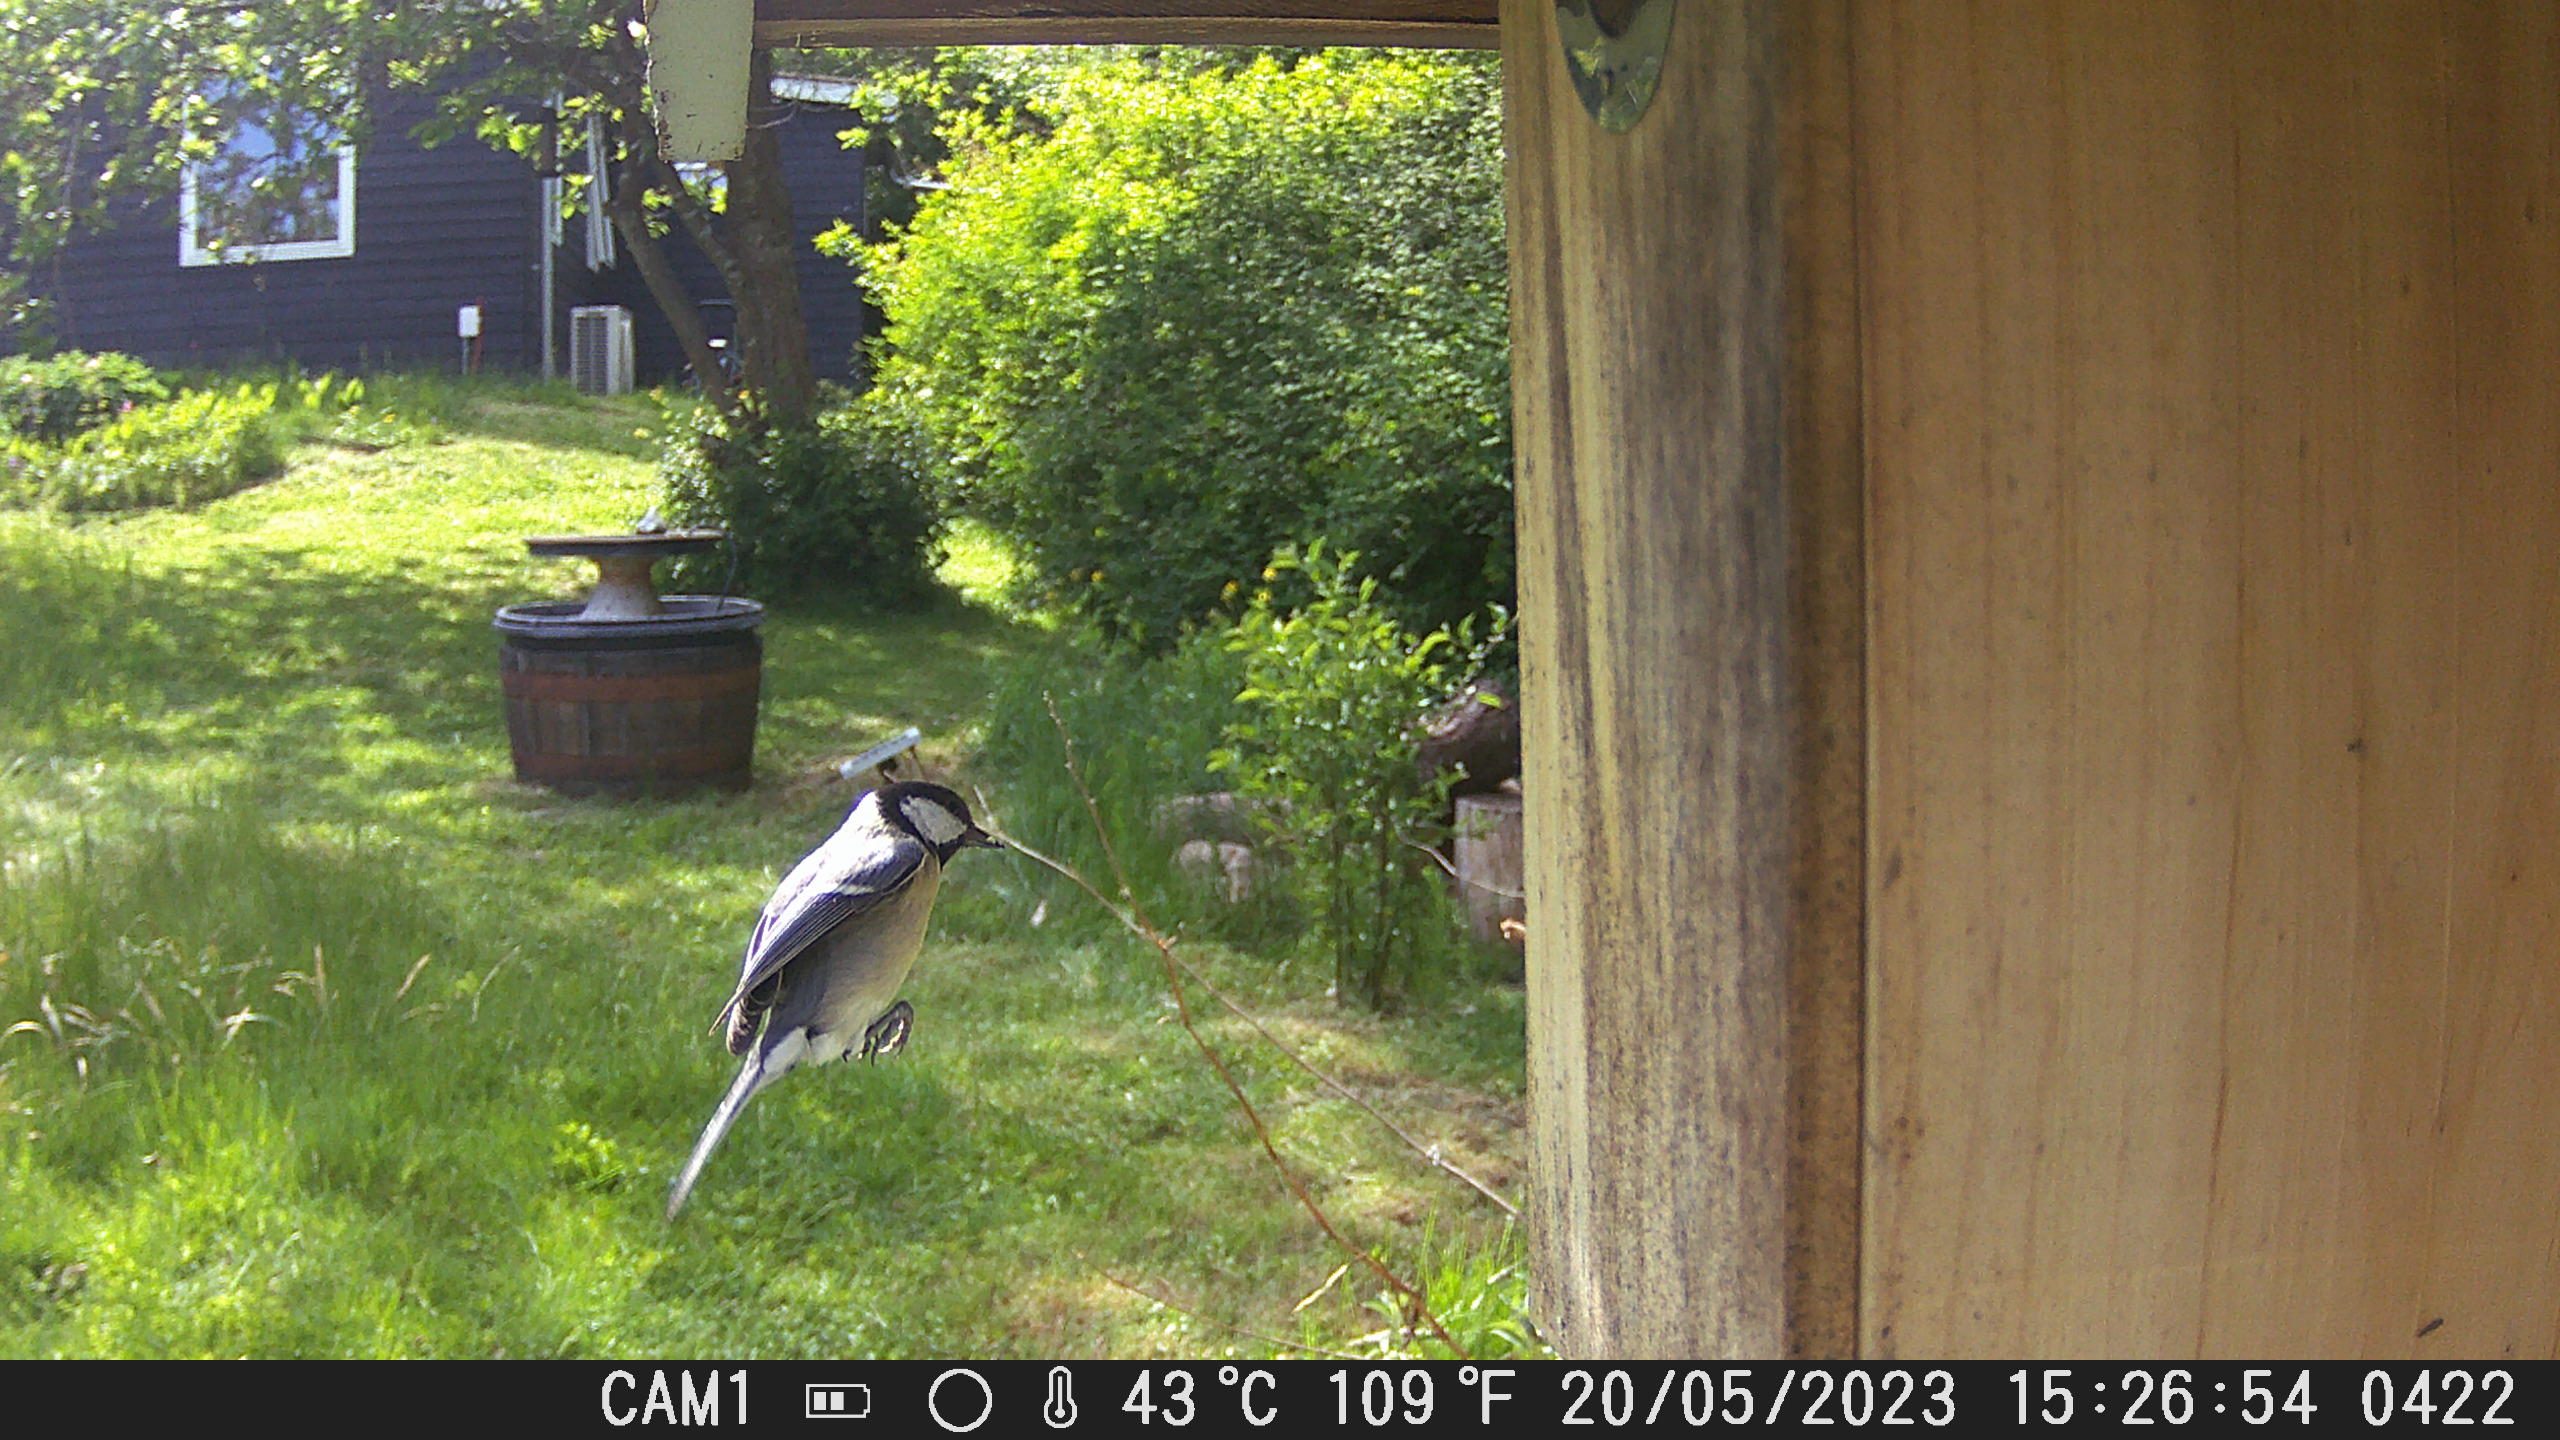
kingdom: Animalia
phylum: Chordata
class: Aves
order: Passeriformes
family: Paridae
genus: Parus
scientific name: Parus major
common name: Musvit
